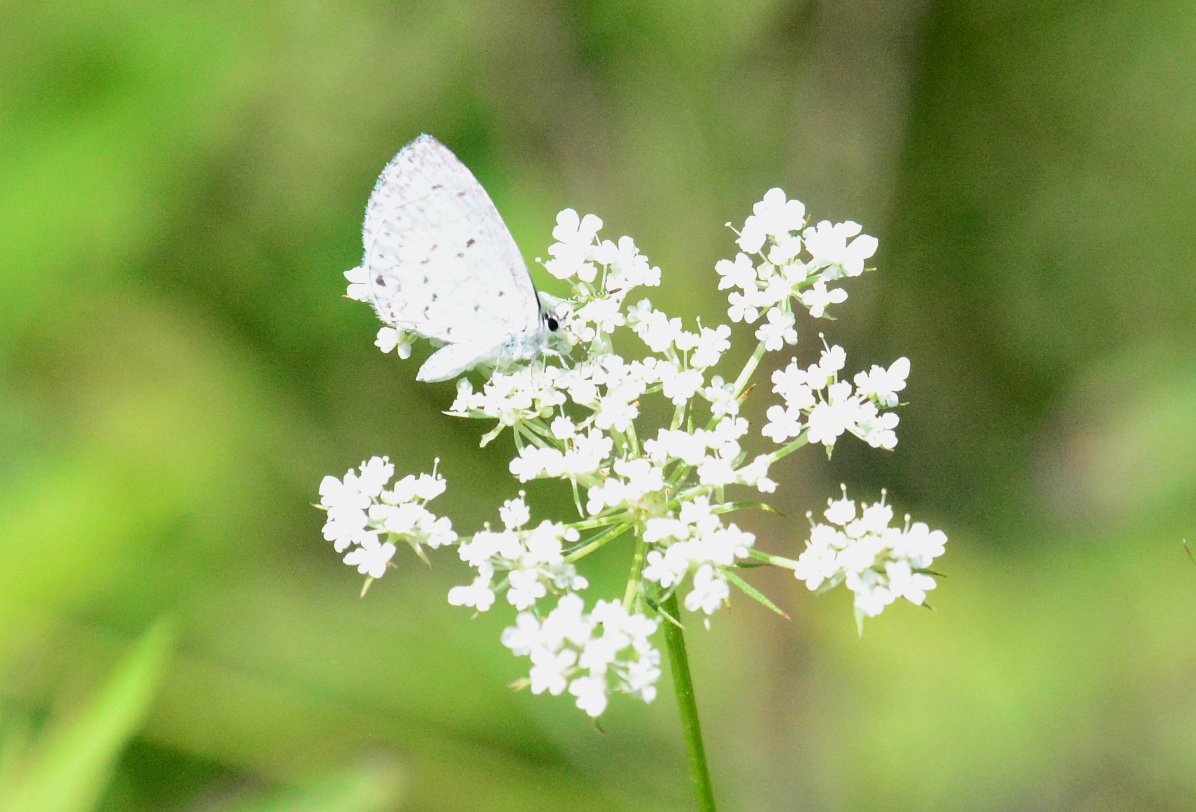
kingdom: Animalia
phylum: Arthropoda
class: Insecta
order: Lepidoptera
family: Lycaenidae
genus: Celastrina
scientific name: Celastrina
